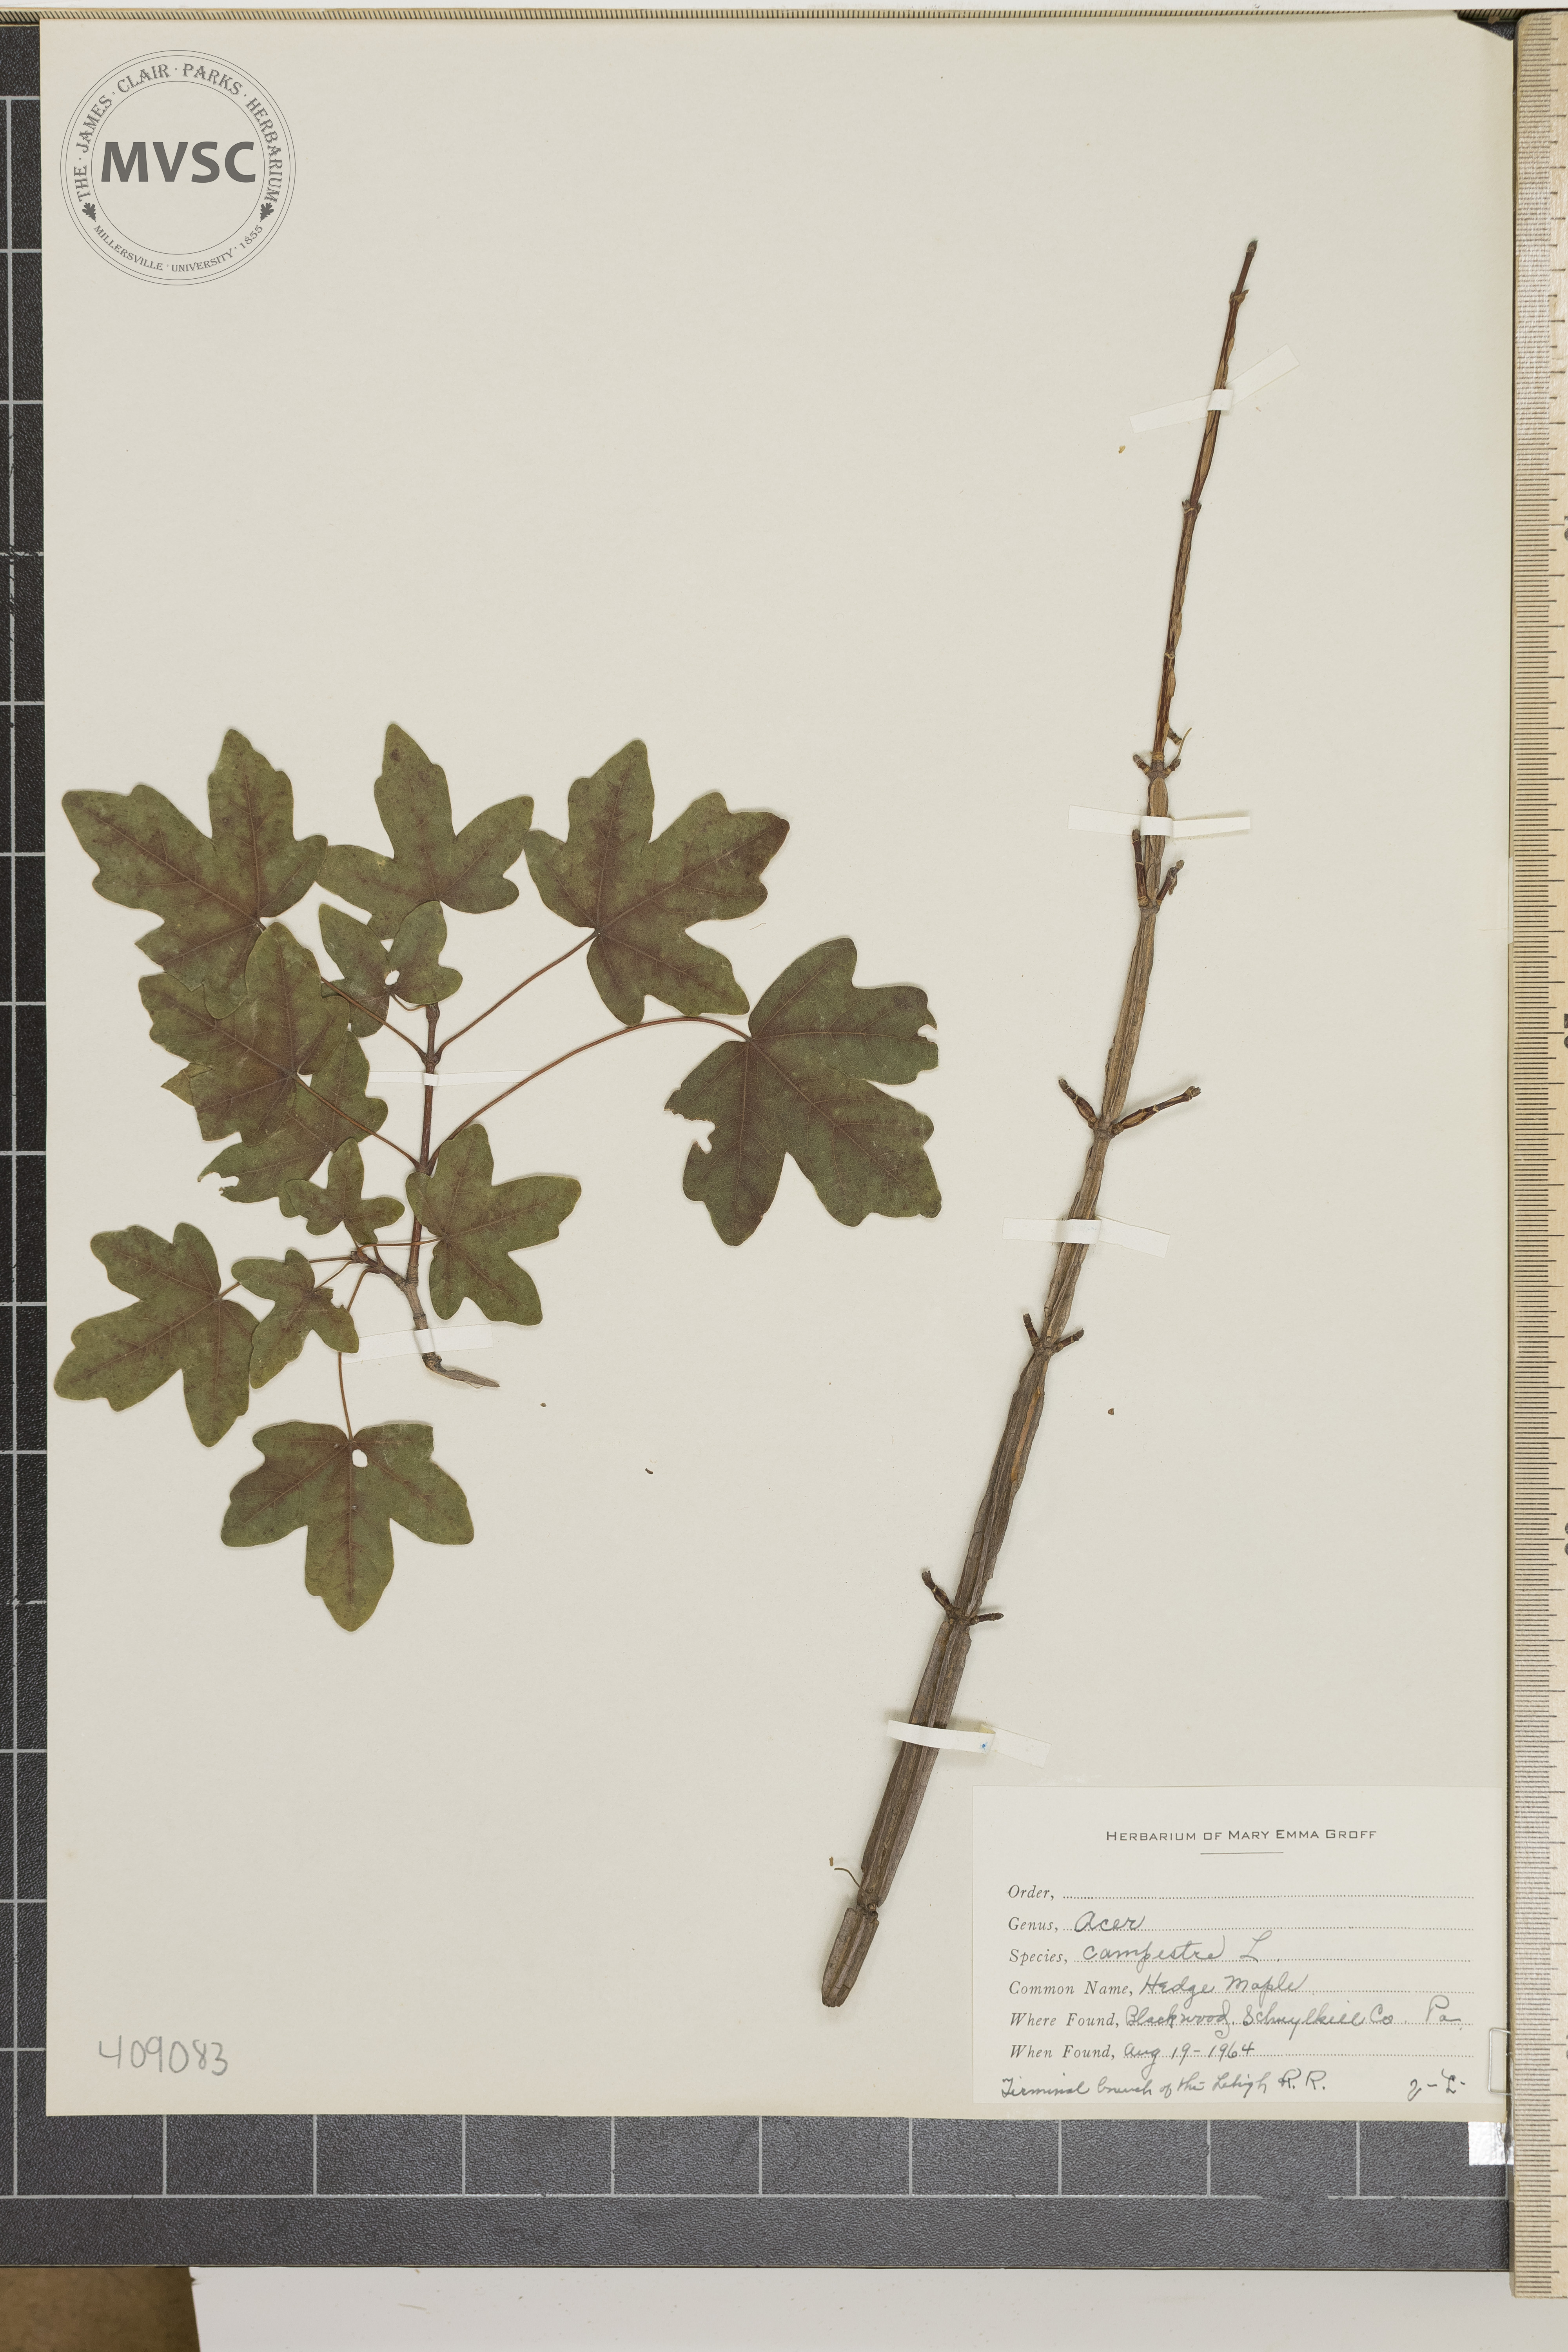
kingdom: Plantae
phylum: Tracheophyta
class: Magnoliopsida
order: Sapindales
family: Sapindaceae
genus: Acer
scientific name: Acer campestre
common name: Hedge Maple
